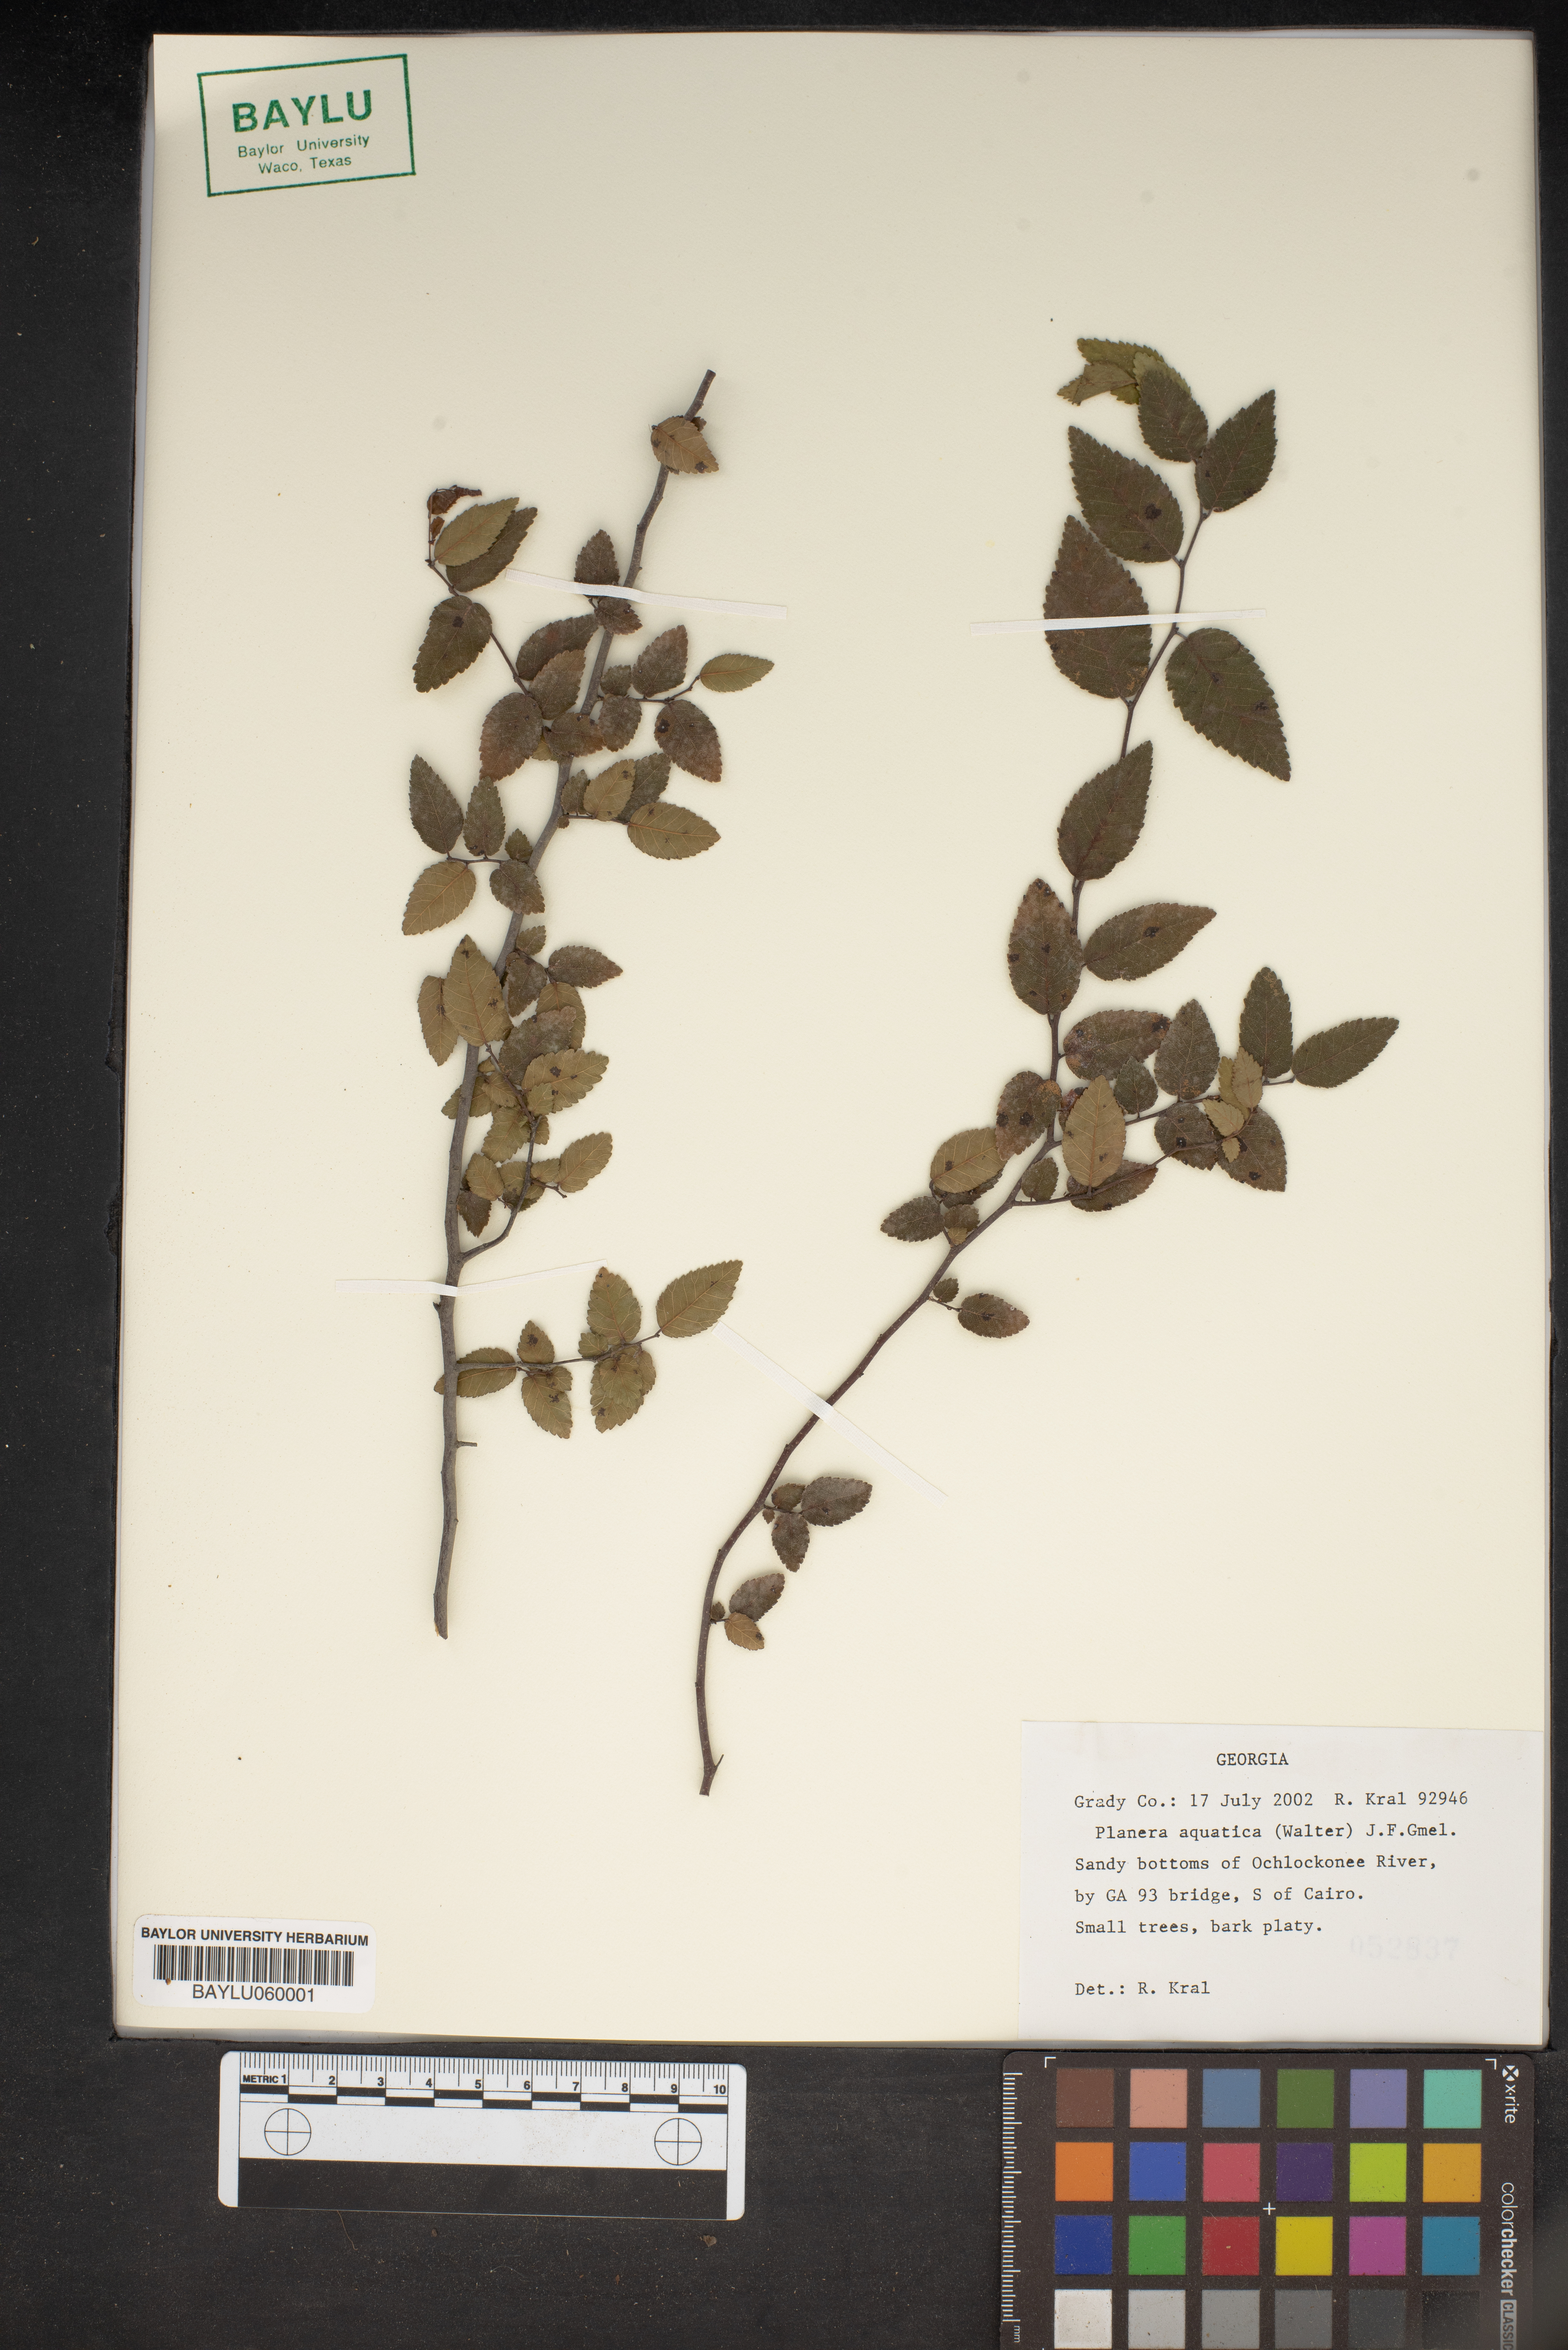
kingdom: Plantae
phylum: Tracheophyta
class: Magnoliopsida
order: Rosales
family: Ulmaceae
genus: Planera
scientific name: Planera aquatica
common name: Water-elm
